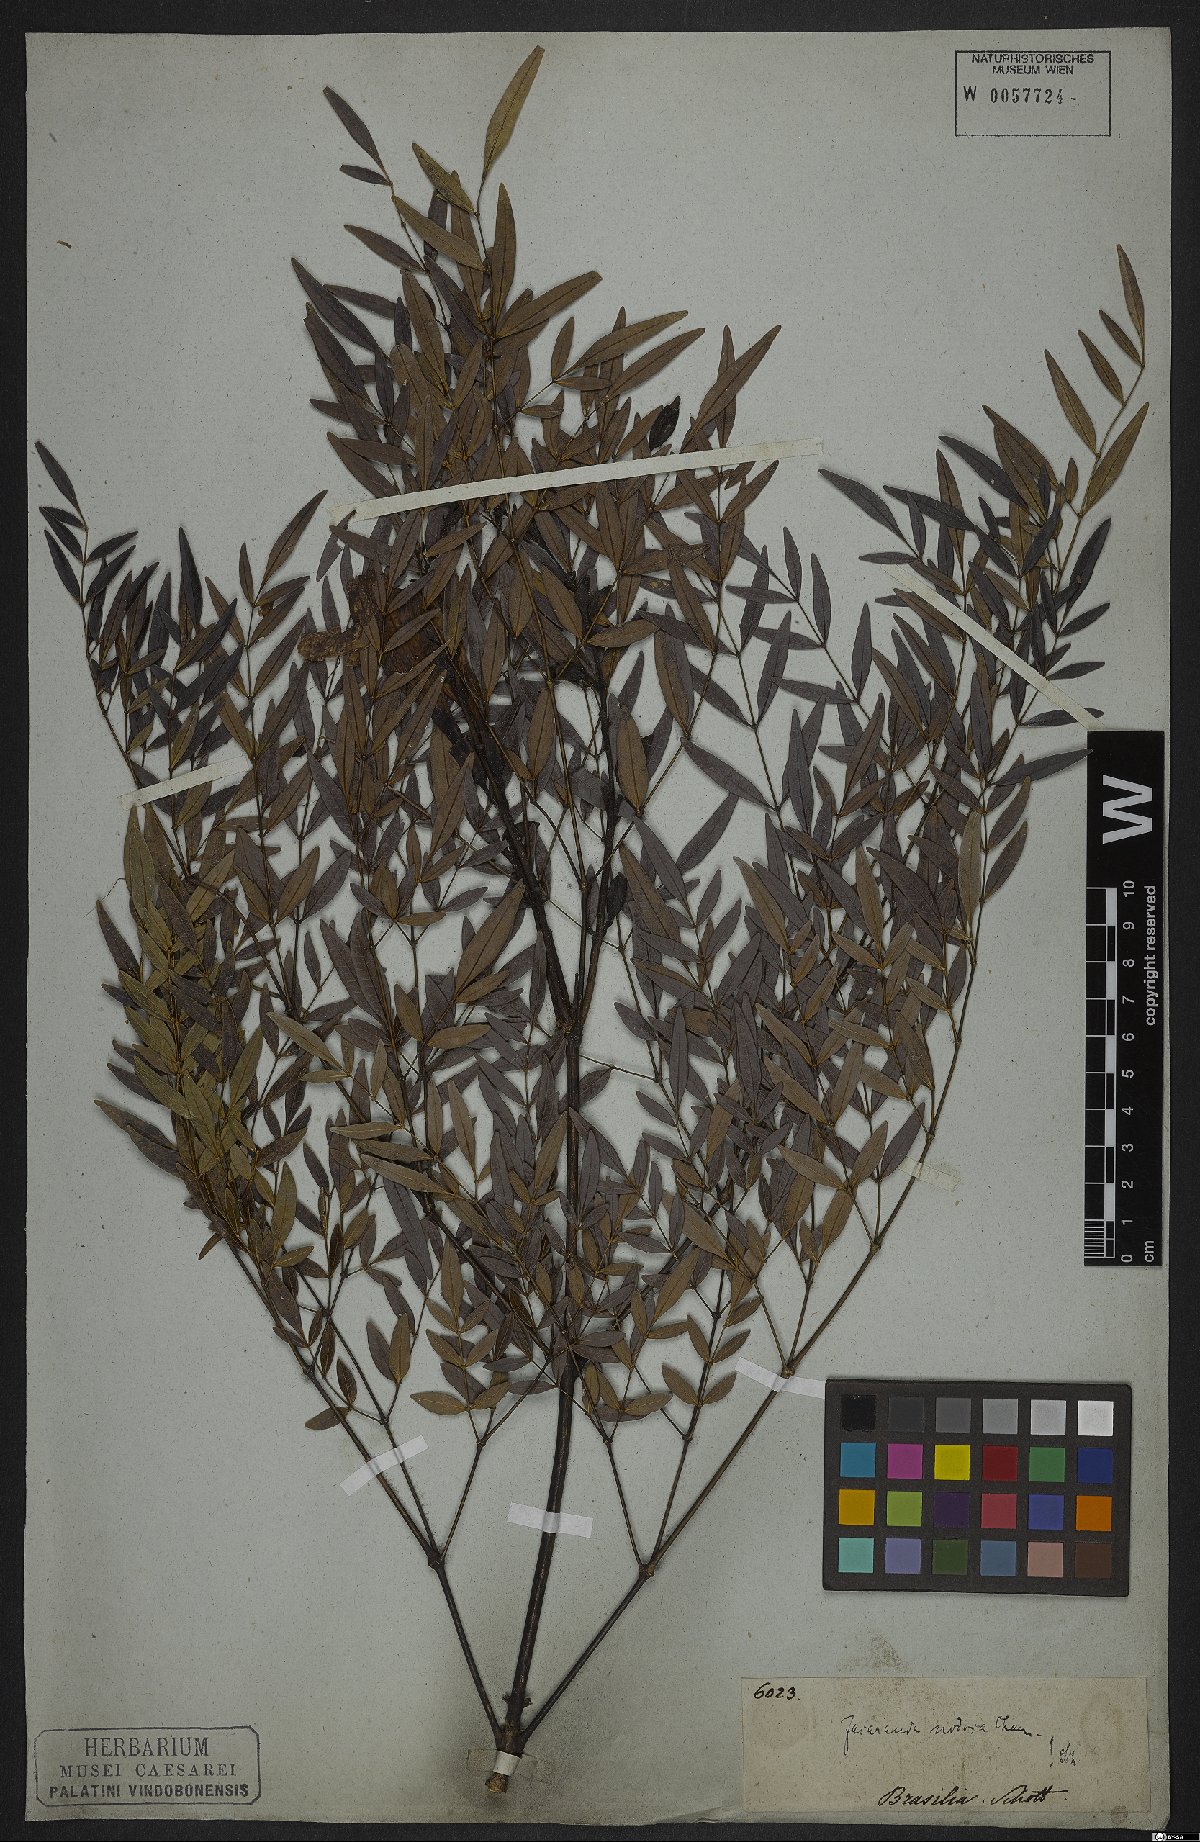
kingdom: Plantae
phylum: Tracheophyta
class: Magnoliopsida
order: Lamiales
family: Bignoniaceae
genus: Jacaranda
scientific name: Jacaranda
